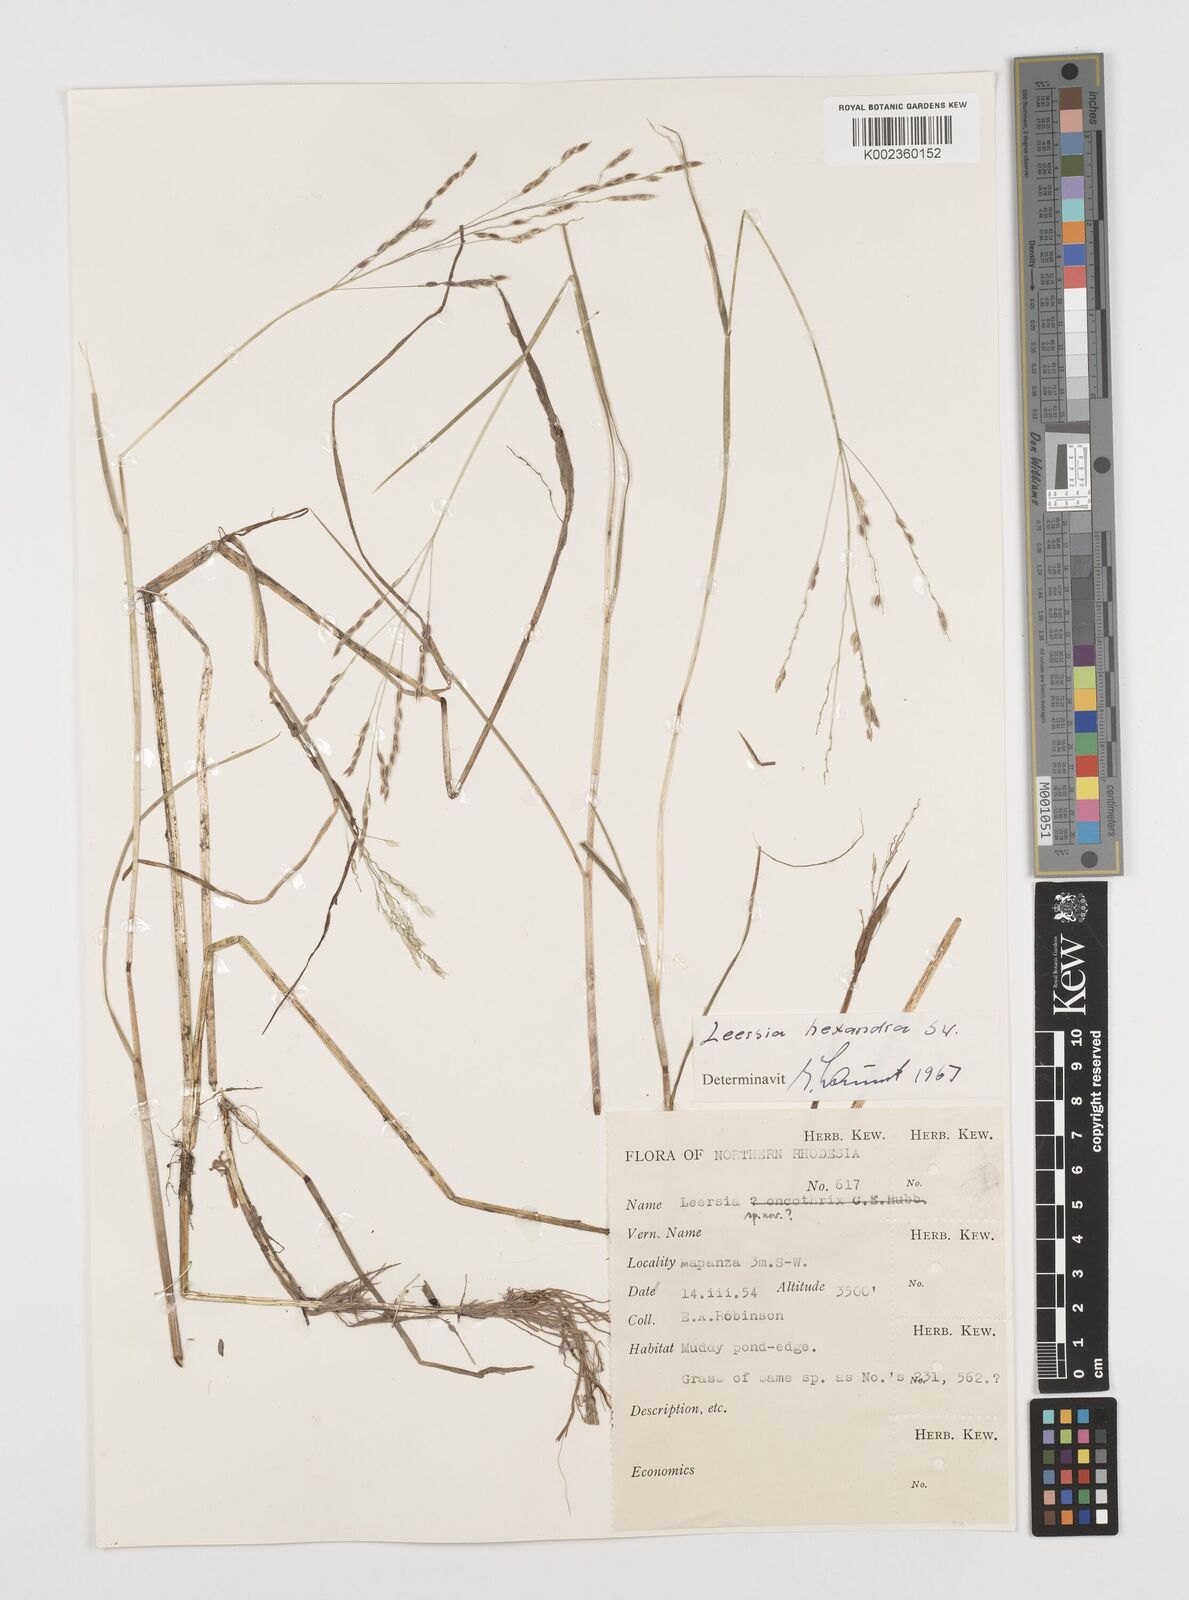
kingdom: Plantae
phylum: Tracheophyta
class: Liliopsida
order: Poales
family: Poaceae
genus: Leersia
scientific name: Leersia hexandra
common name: Southern cut grass
